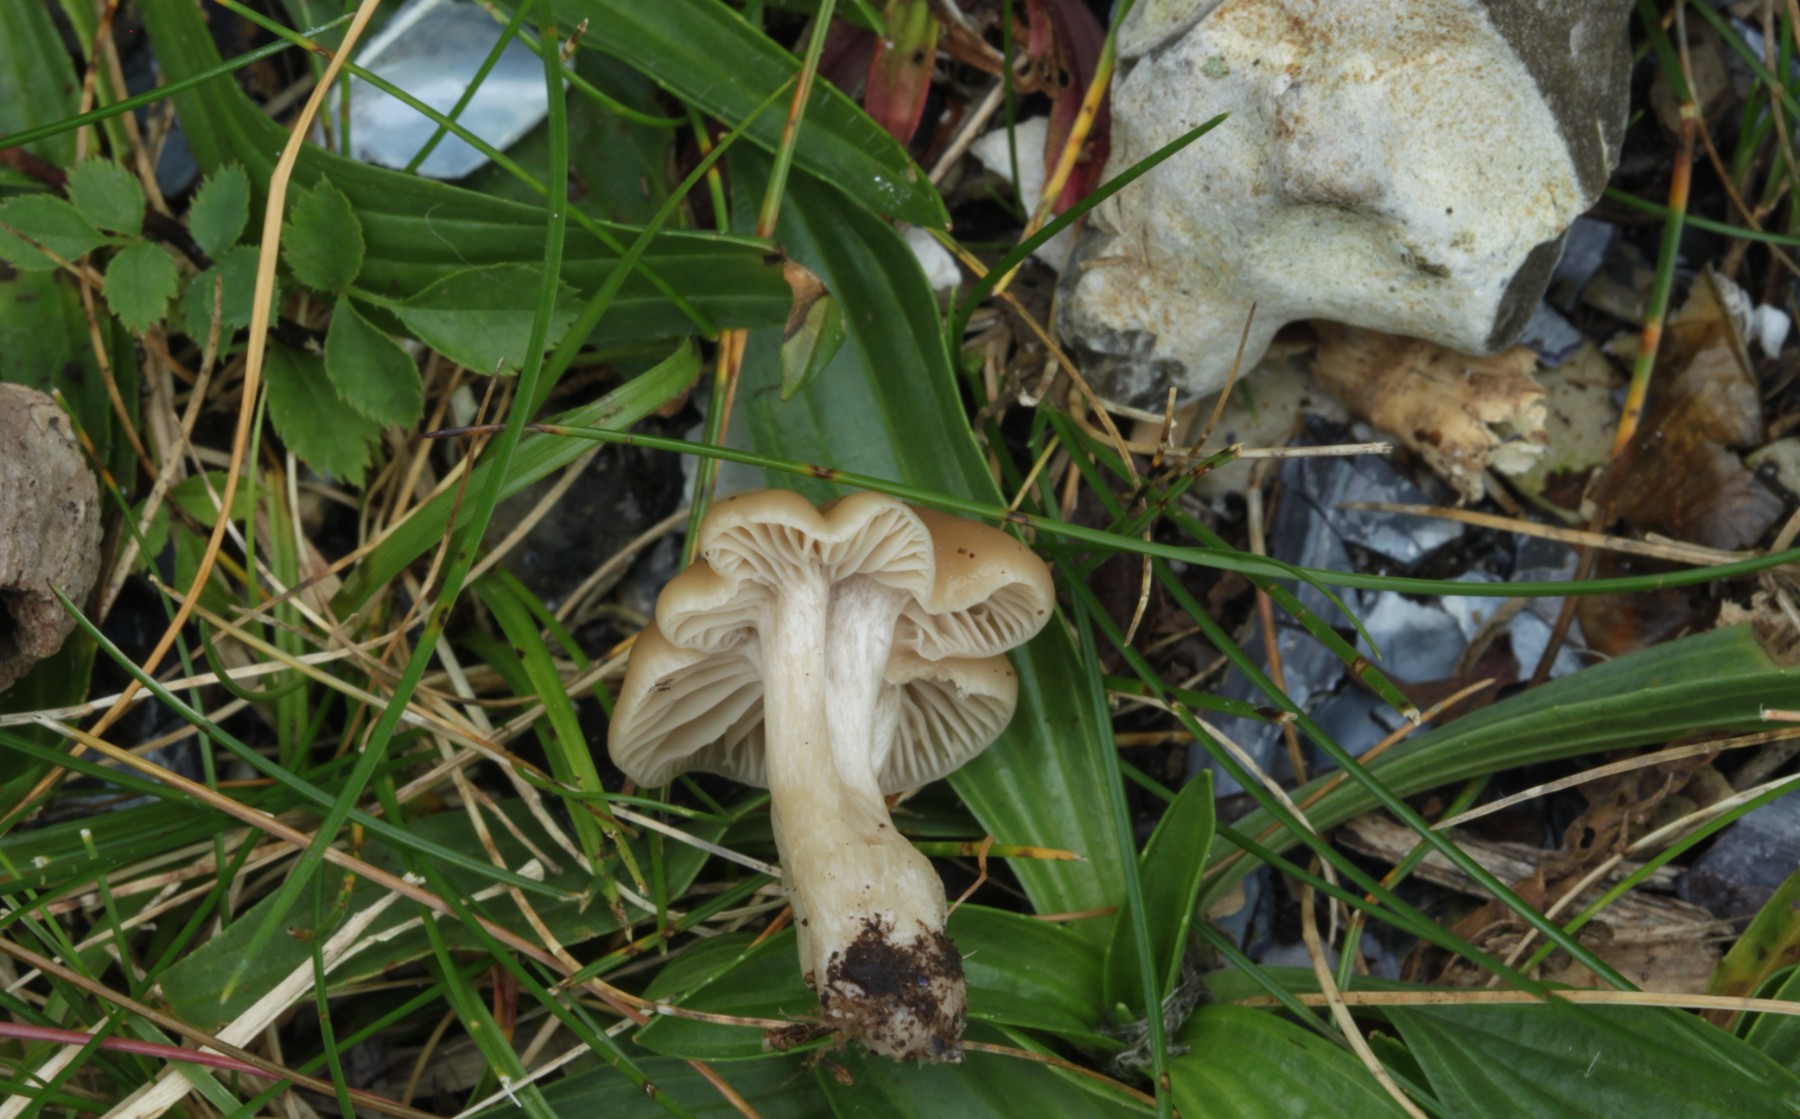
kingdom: Fungi
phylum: Basidiomycota
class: Agaricomycetes
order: Agaricales
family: Hygrophoraceae
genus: Cuphophyllus
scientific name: Cuphophyllus
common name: vokshat
